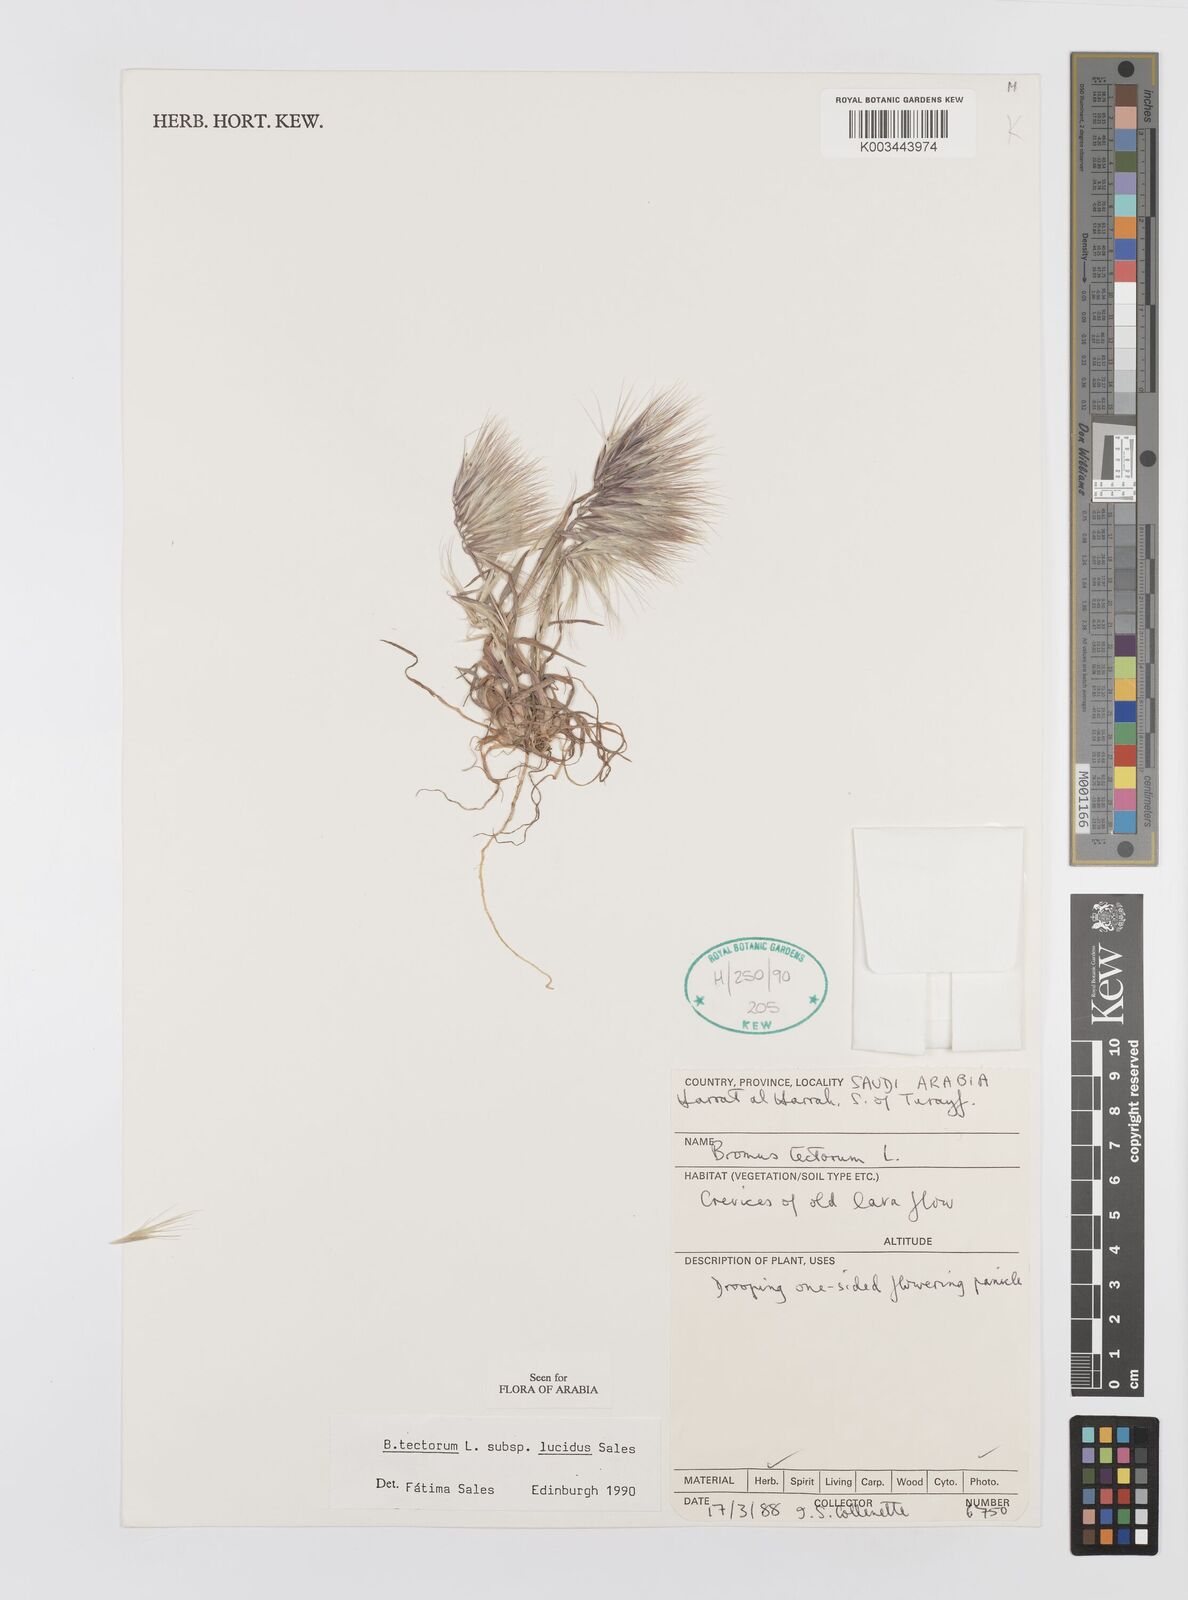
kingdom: Plantae
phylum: Tracheophyta
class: Liliopsida
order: Poales
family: Poaceae
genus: Bromus
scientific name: Bromus moeszii
